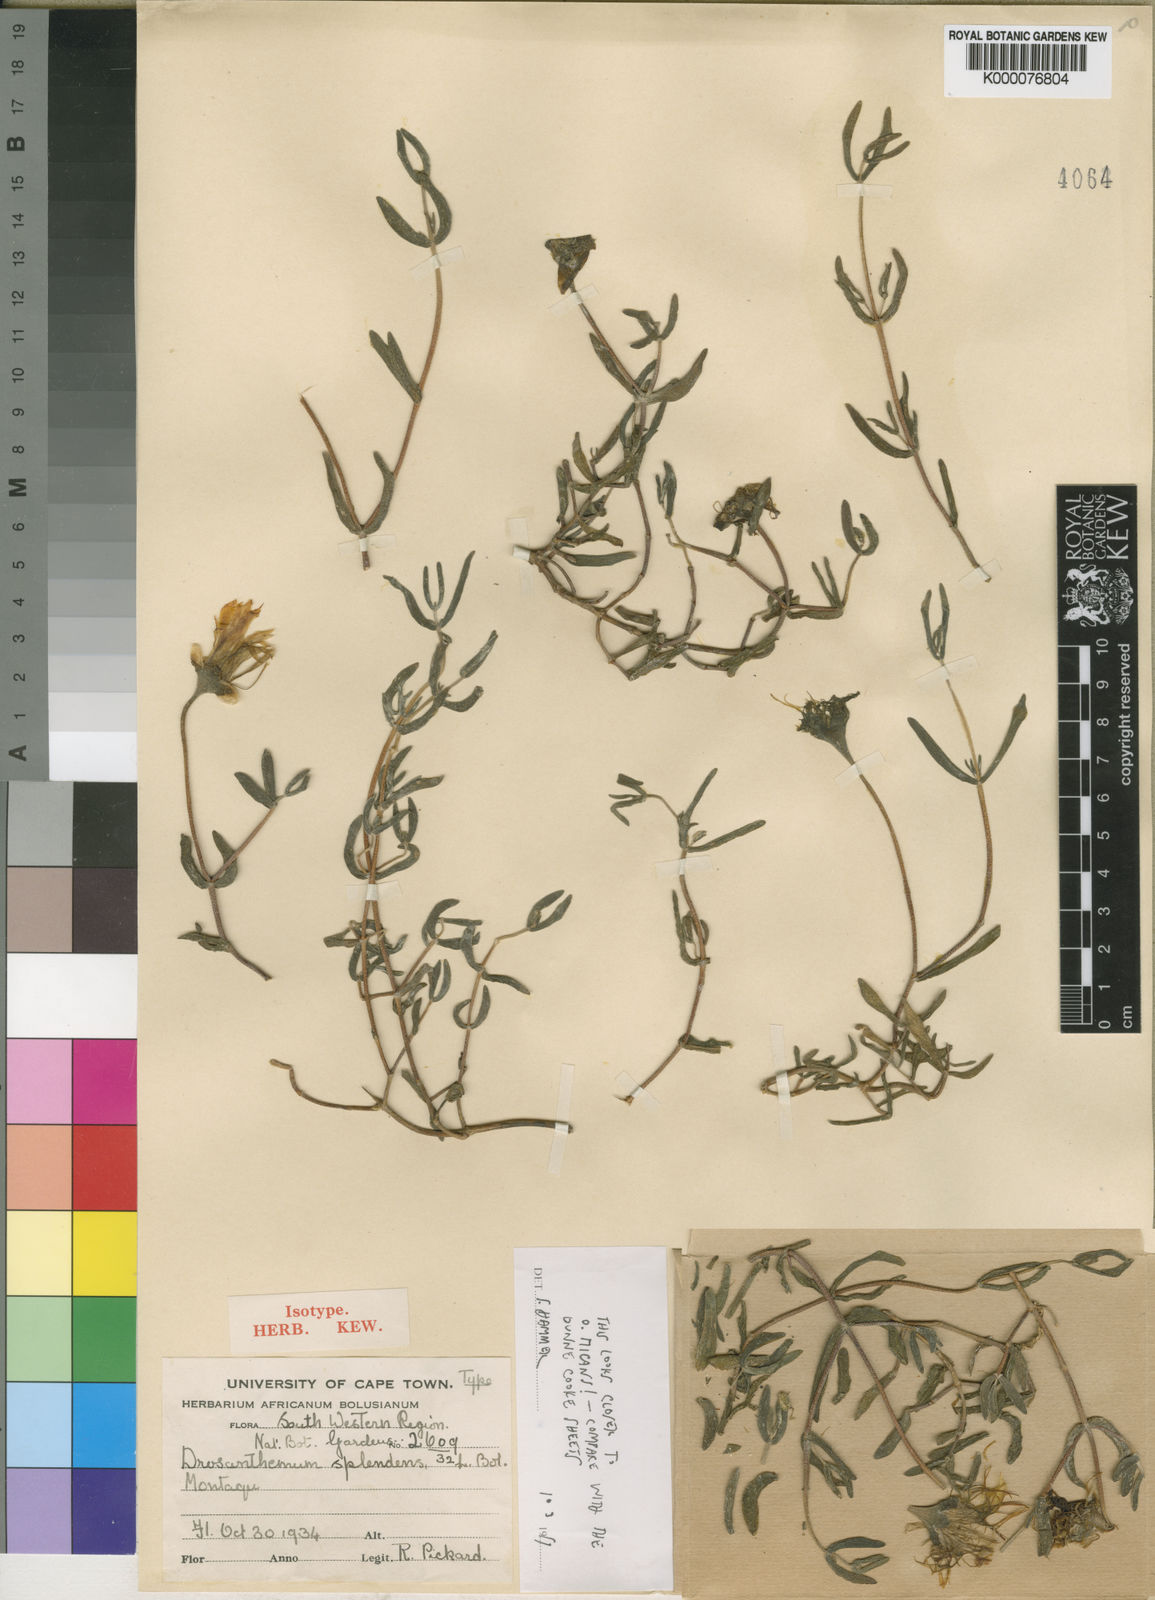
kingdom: Plantae
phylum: Tracheophyta
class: Magnoliopsida
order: Caryophyllales
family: Aizoaceae
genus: Drosanthemum
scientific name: Drosanthemum splendens
